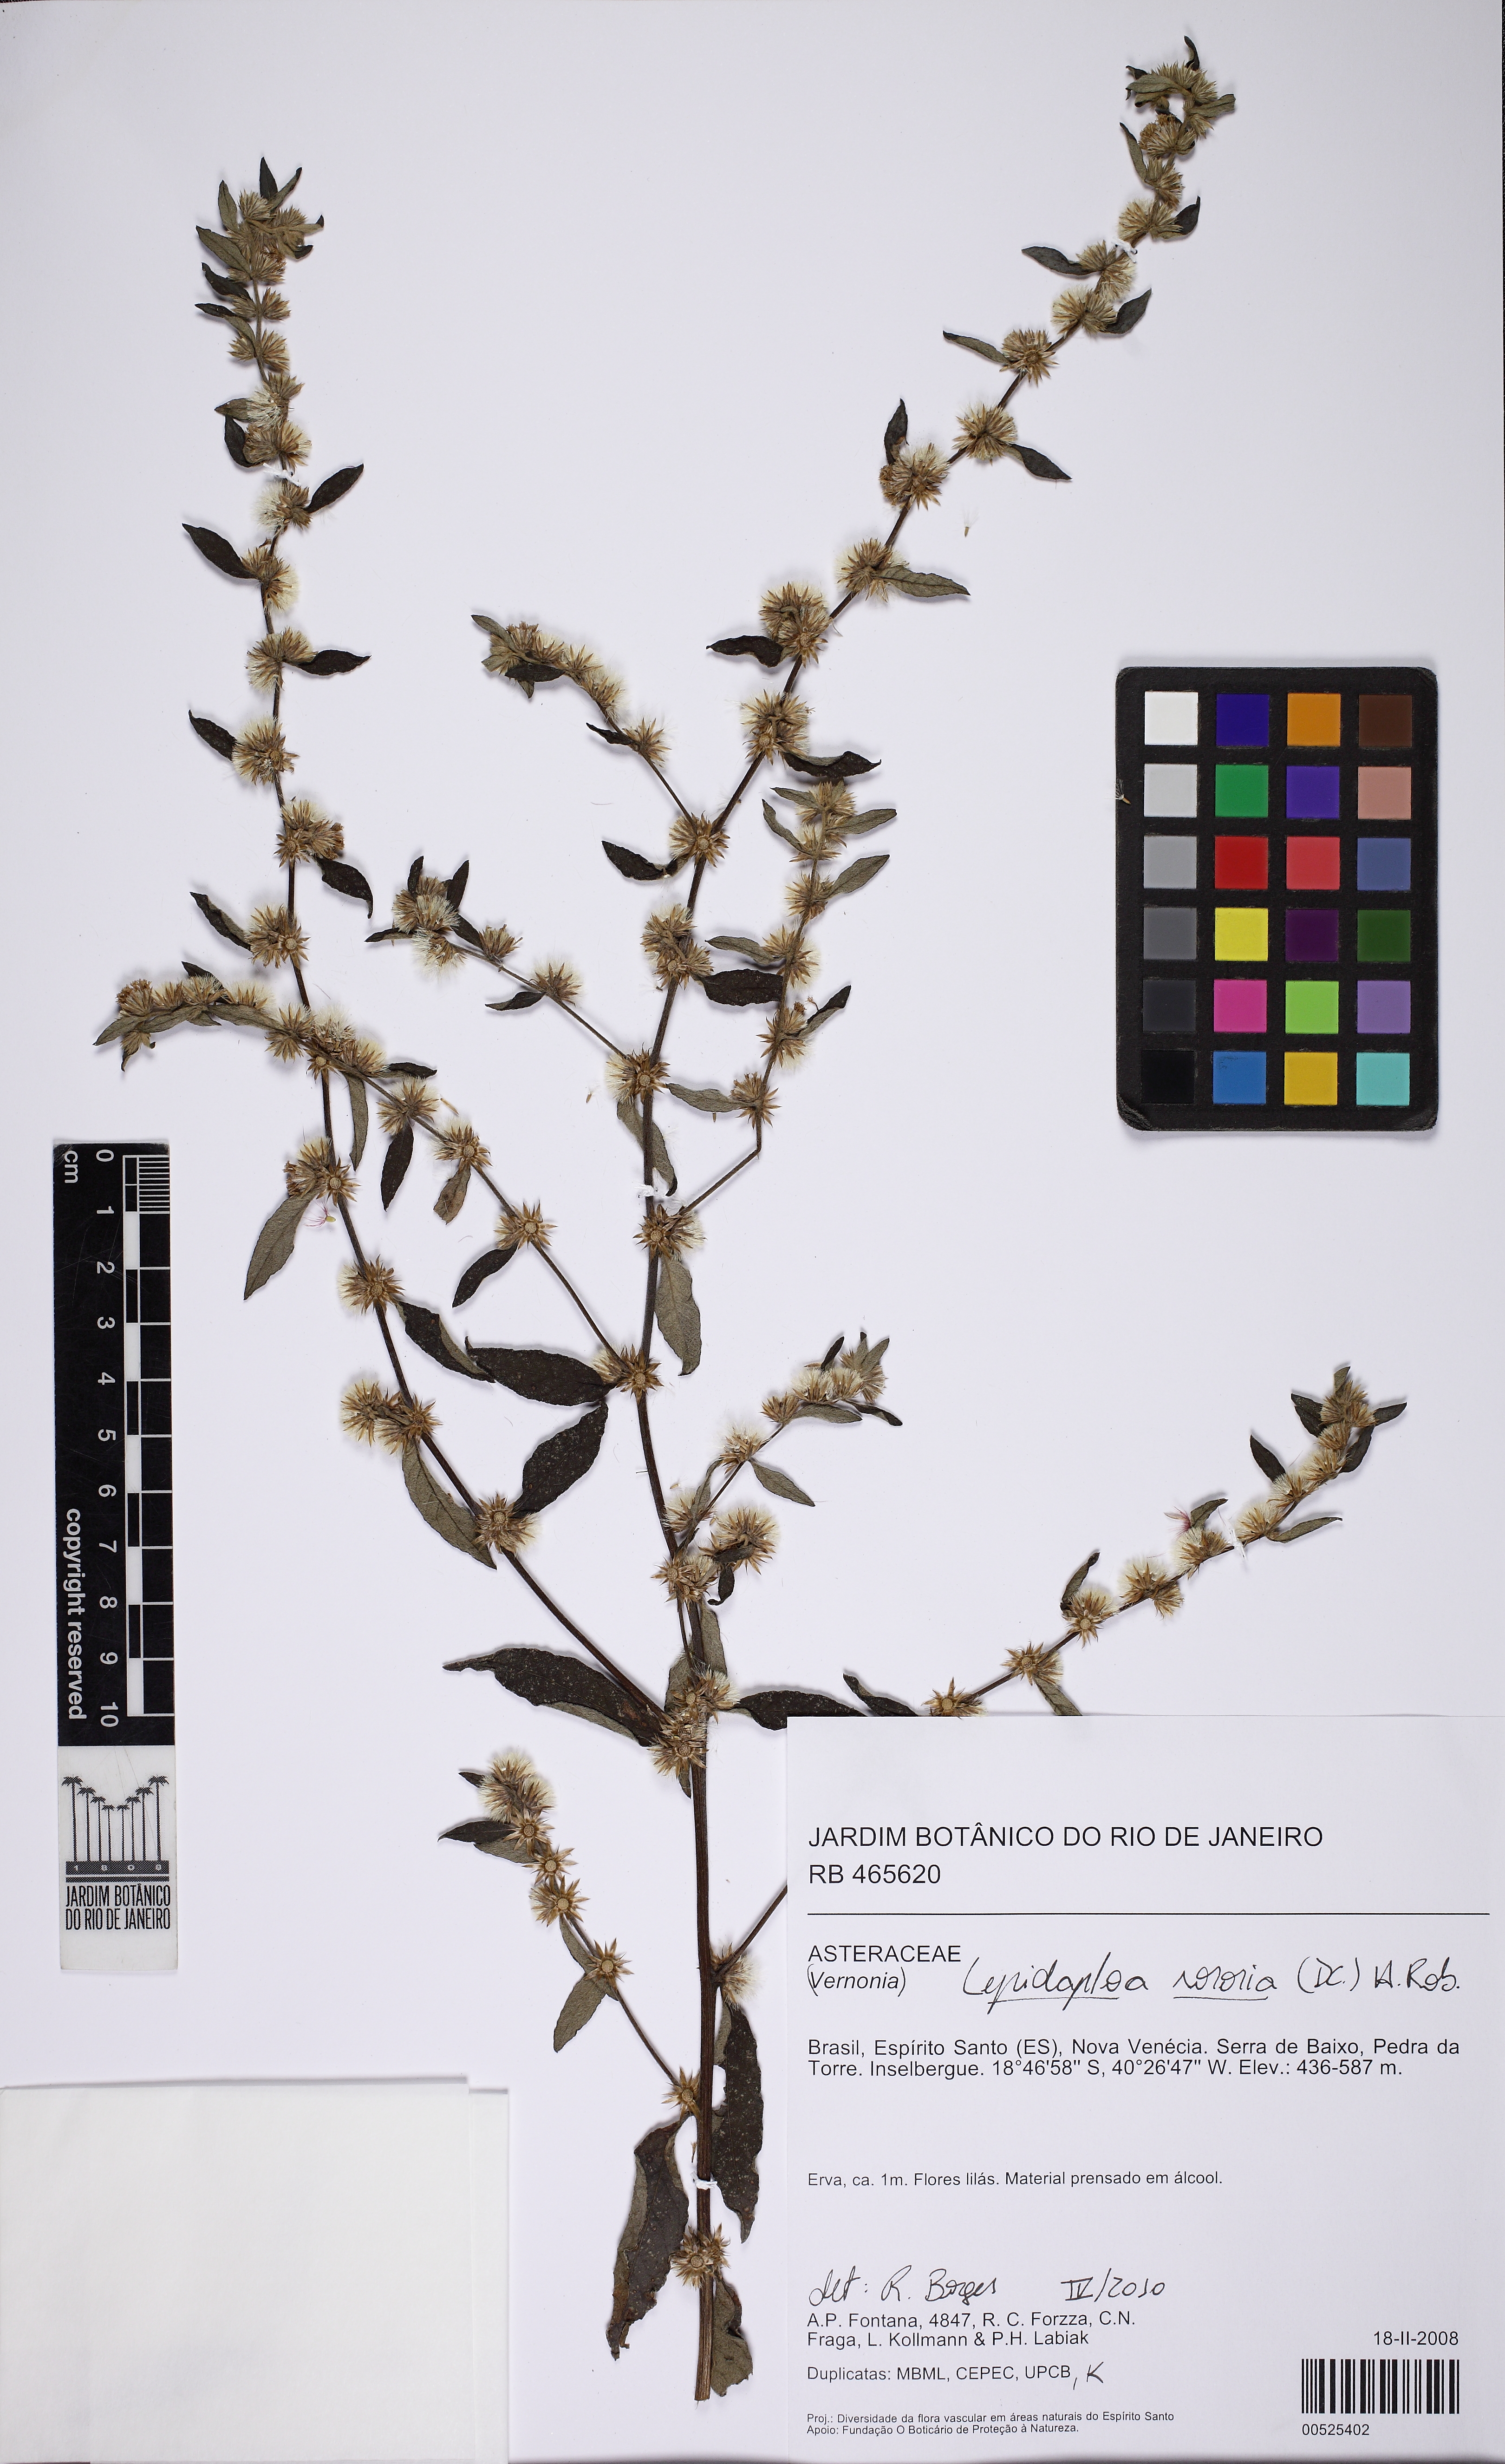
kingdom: Plantae
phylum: Tracheophyta
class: Magnoliopsida
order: Asterales
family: Asteraceae
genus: Lepidaploa
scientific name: Lepidaploa sororia
